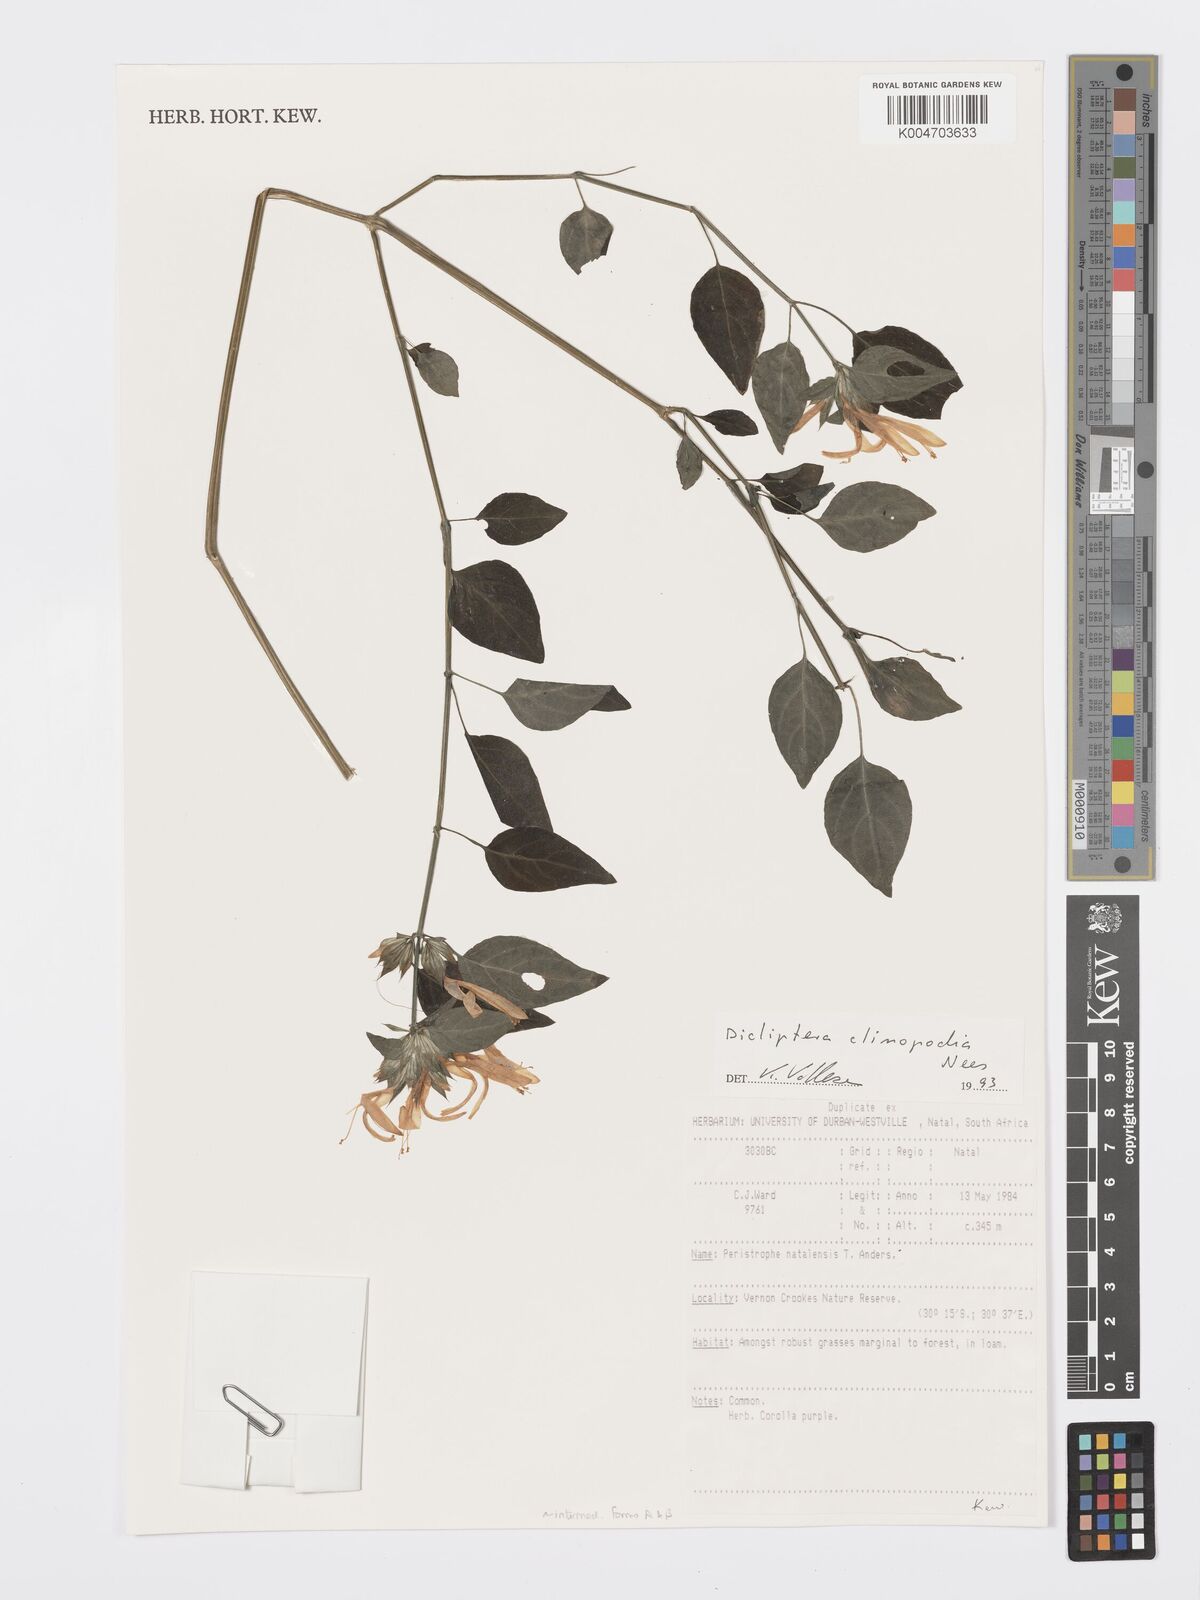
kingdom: Plantae
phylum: Tracheophyta
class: Magnoliopsida
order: Lamiales
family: Acanthaceae
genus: Dicliptera
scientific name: Dicliptera clinopodia
